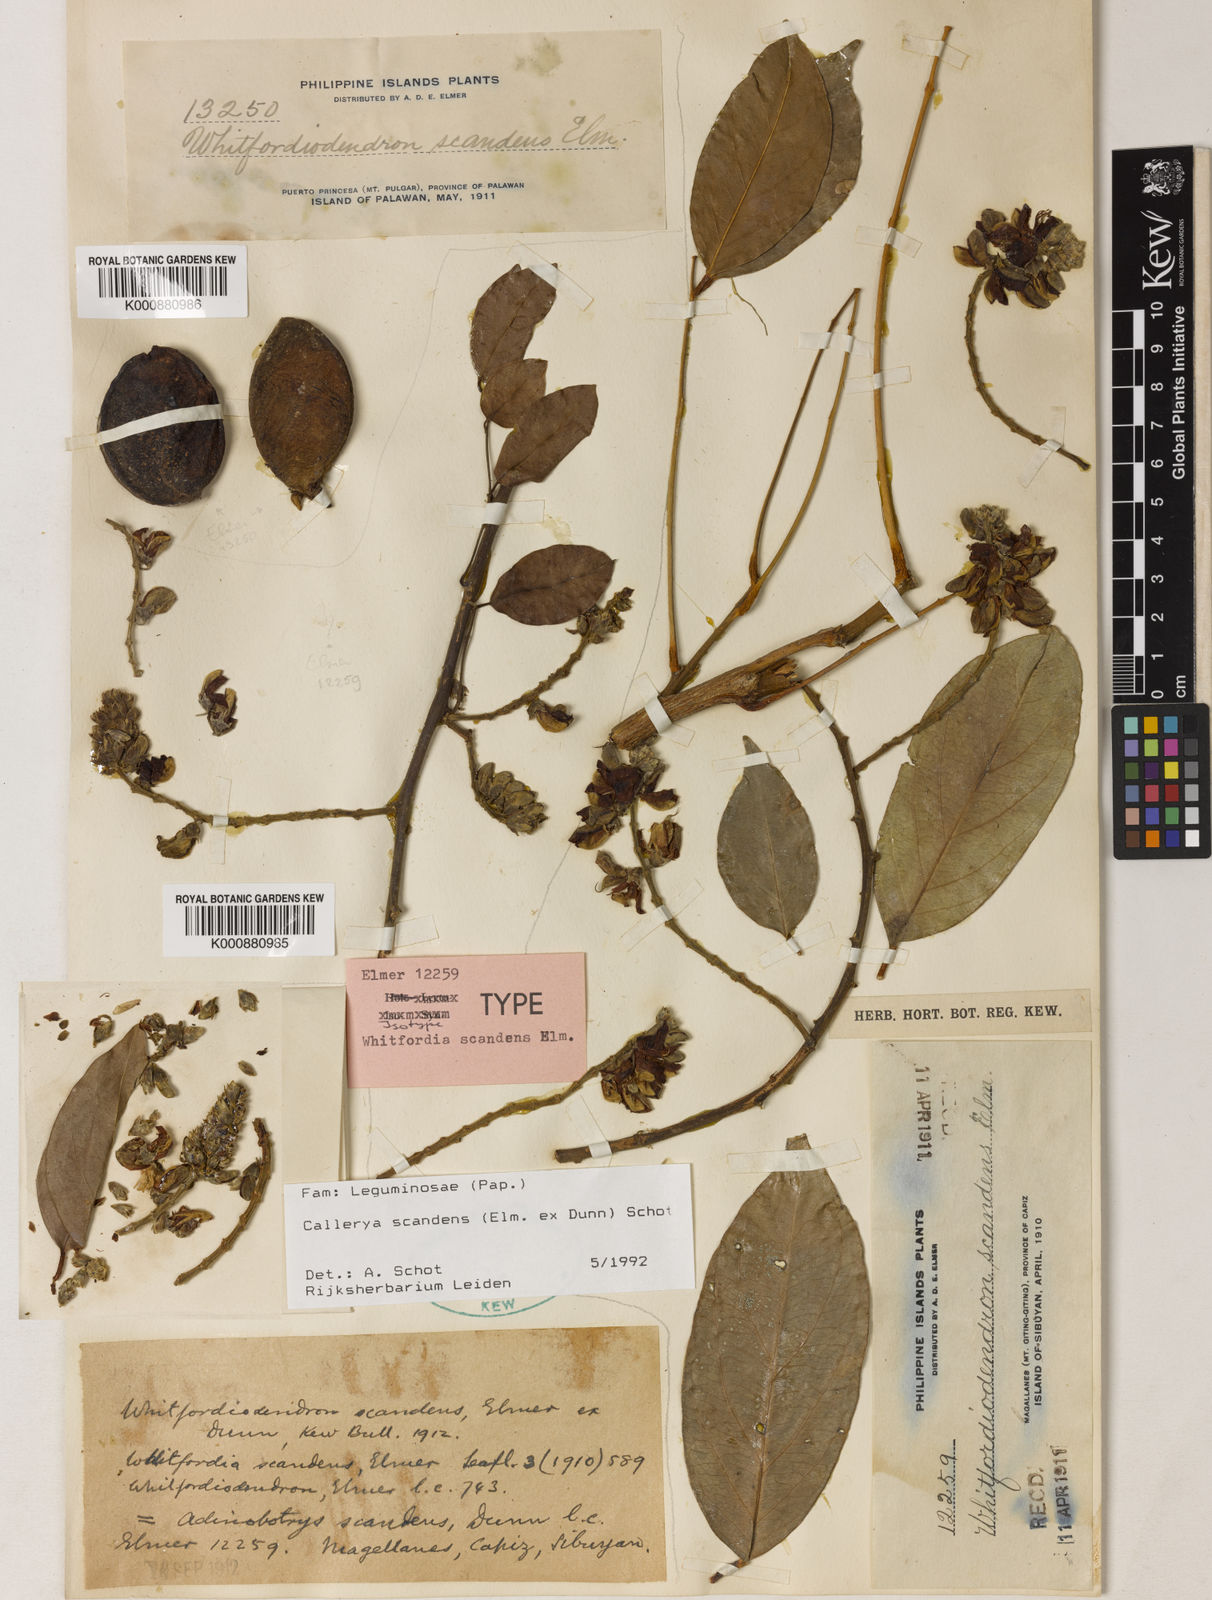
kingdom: Plantae
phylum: Tracheophyta
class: Magnoliopsida
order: Fabales
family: Fabaceae
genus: Whitfordiodendron
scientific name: Whitfordiodendron scandens
